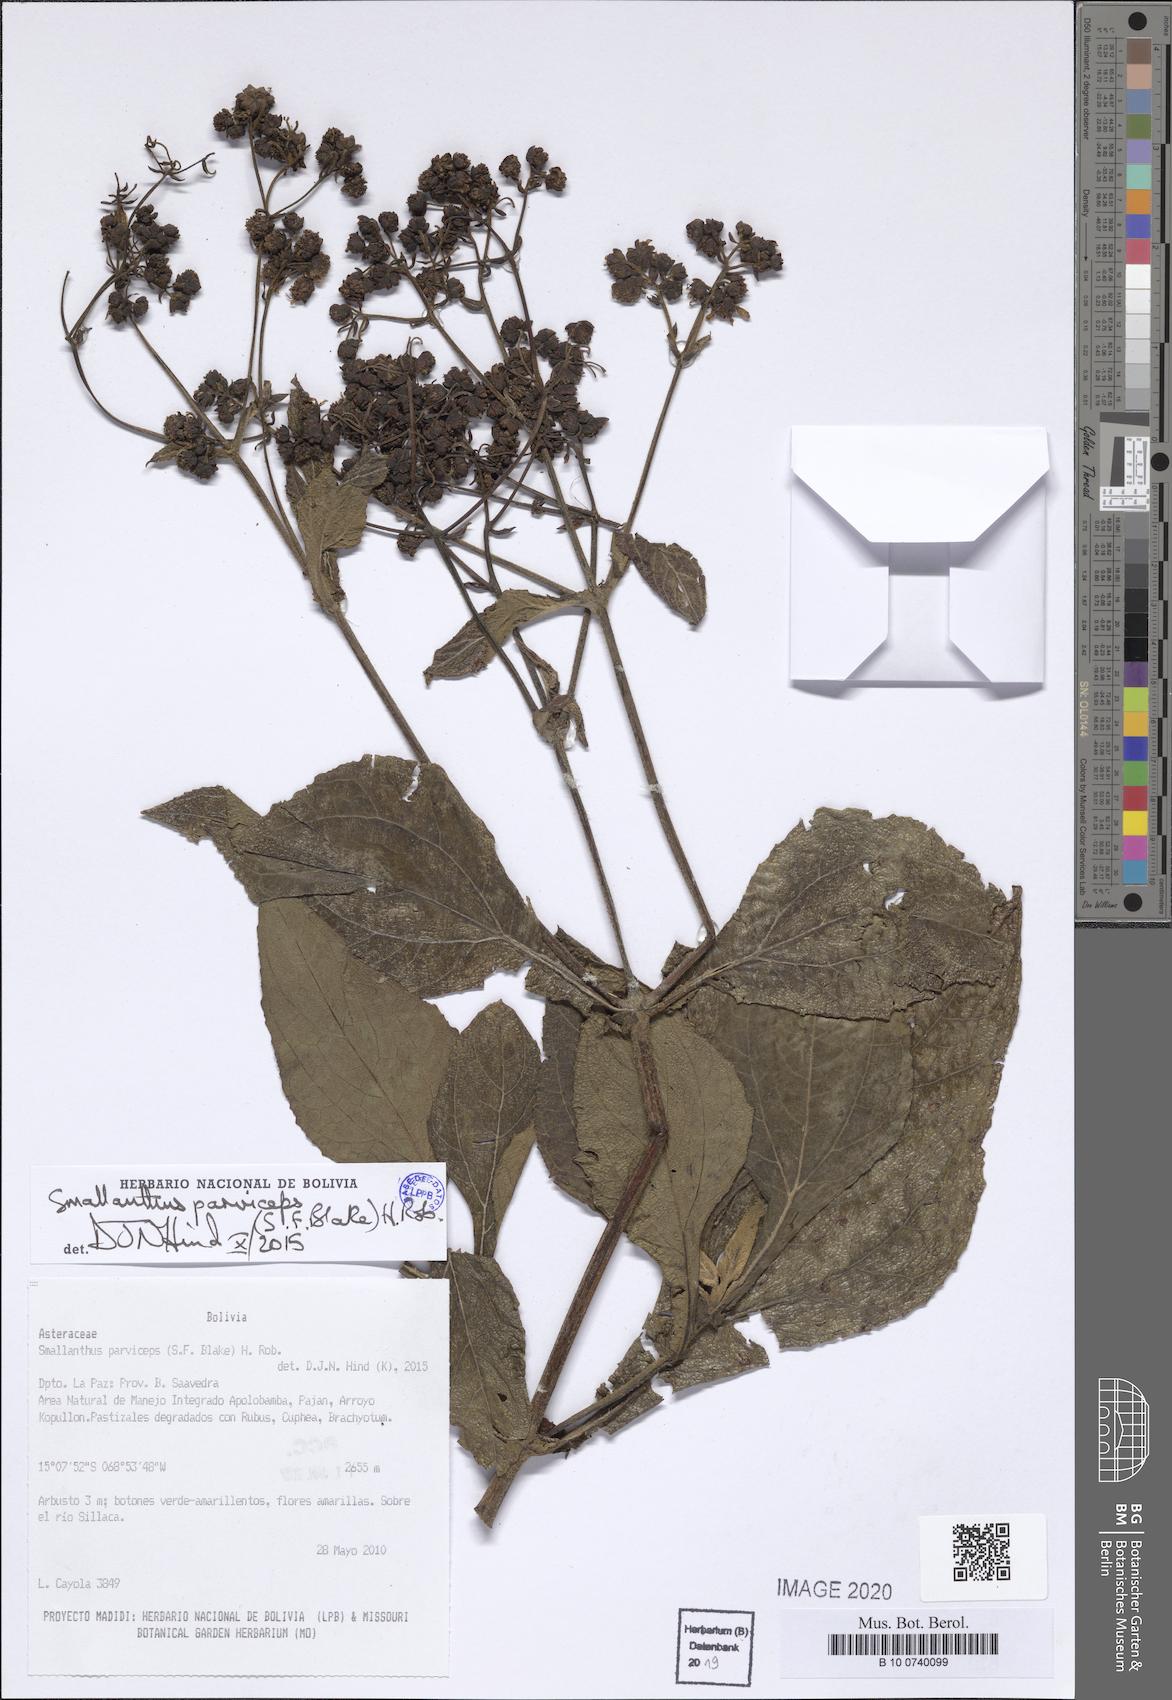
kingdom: Plantae
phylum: Tracheophyta
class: Magnoliopsida
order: Asterales
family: Asteraceae
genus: Smallanthus
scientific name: Smallanthus parviceps
